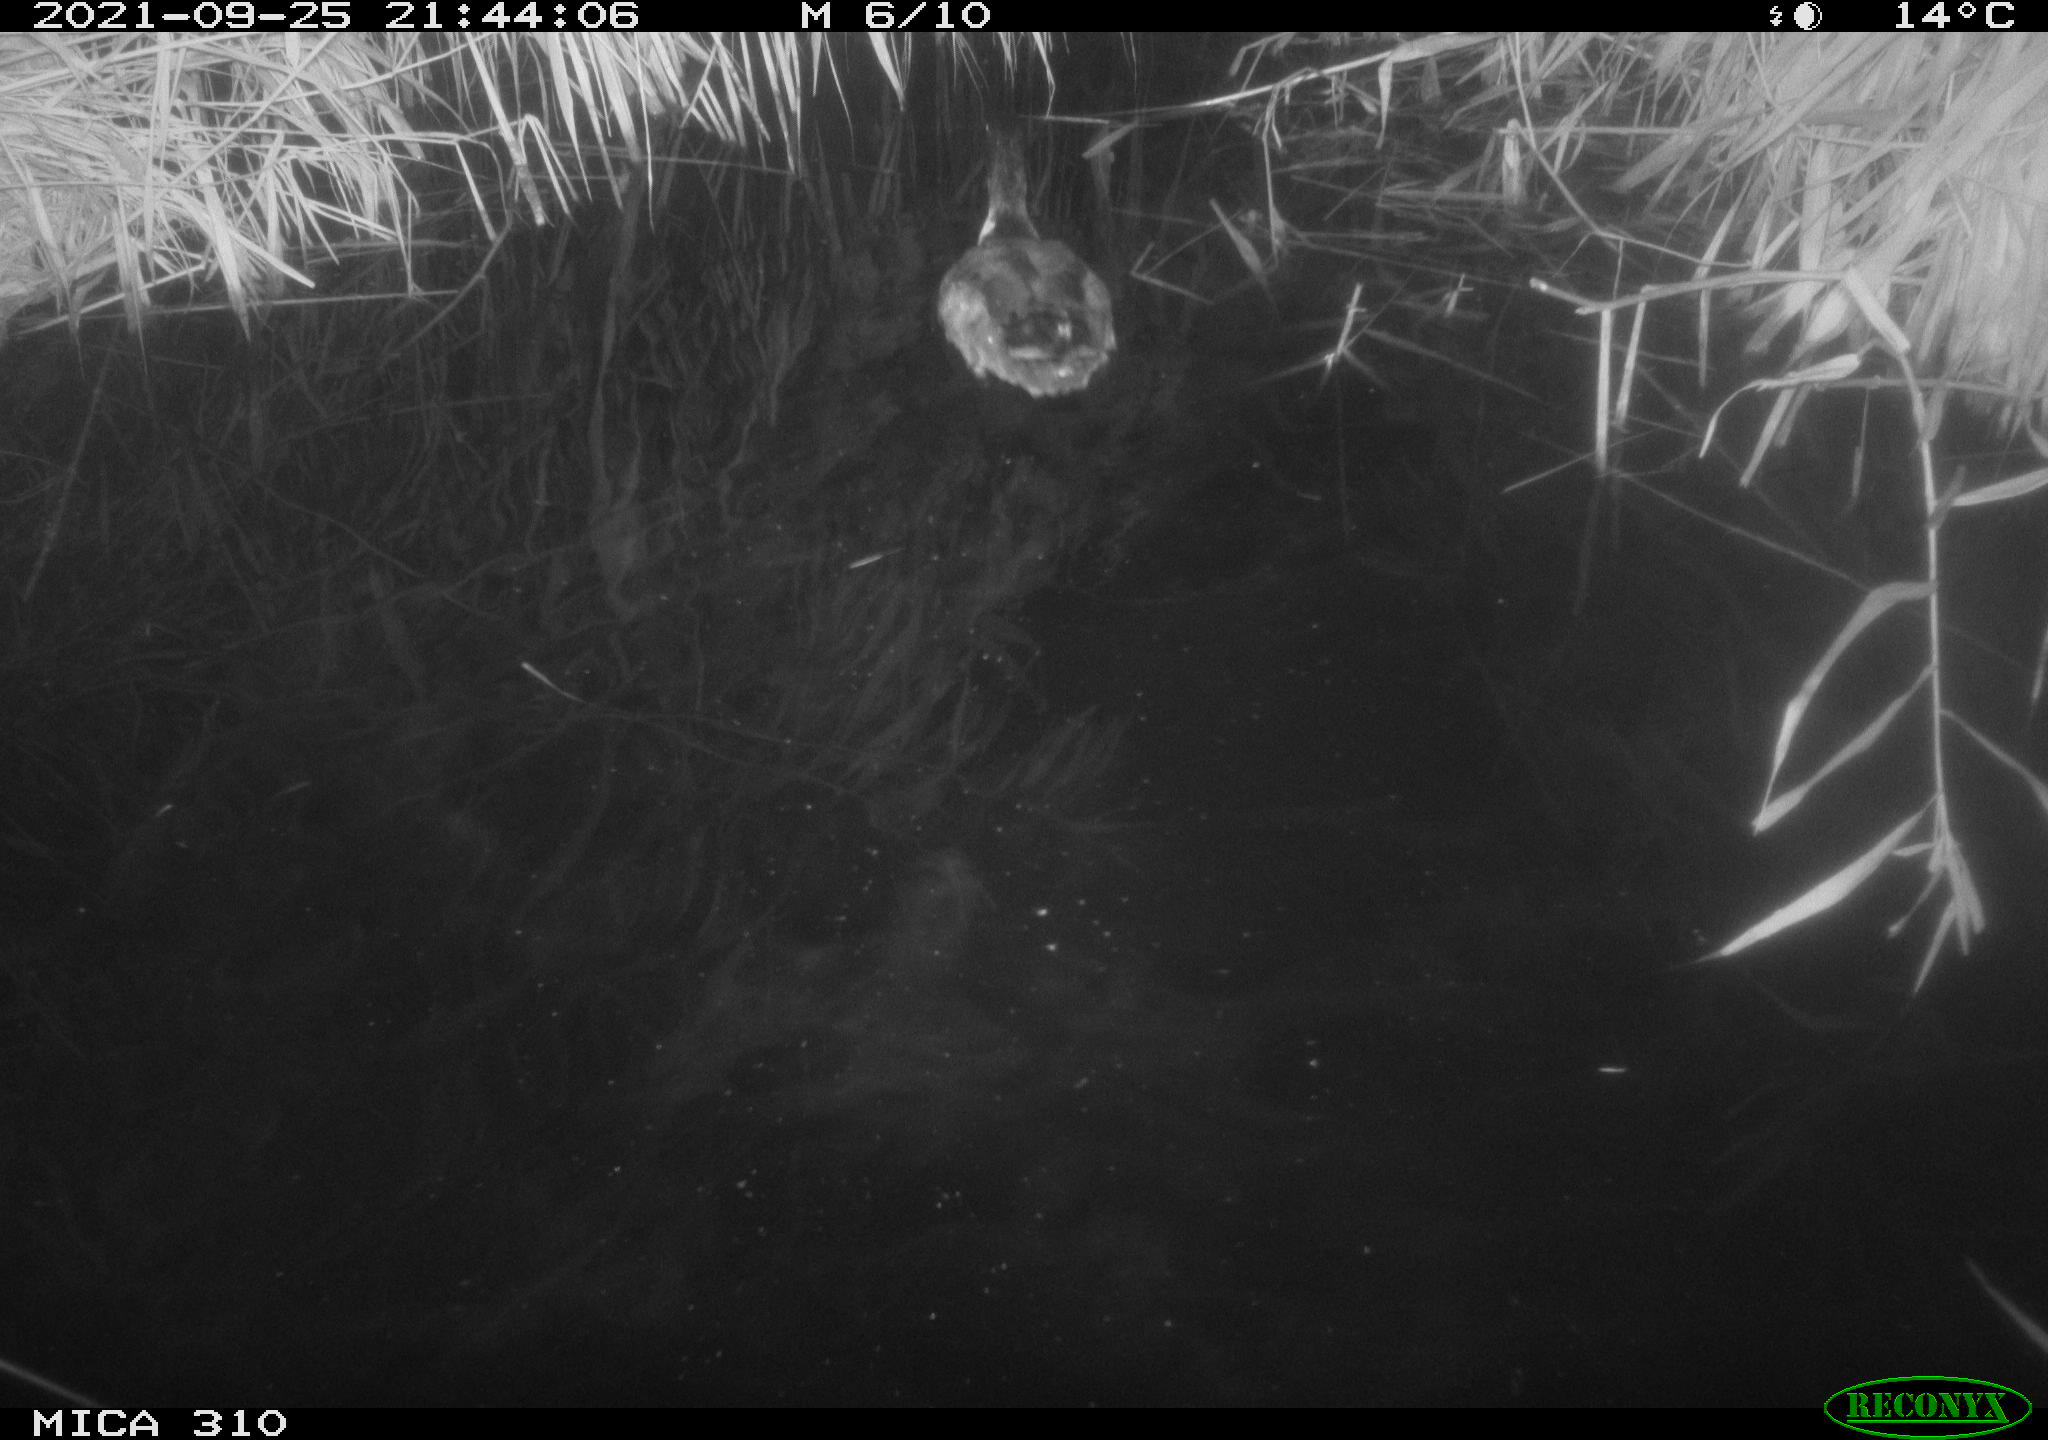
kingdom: Animalia
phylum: Chordata
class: Aves
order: Anseriformes
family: Anatidae
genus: Mareca
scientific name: Mareca strepera
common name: Gadwall
